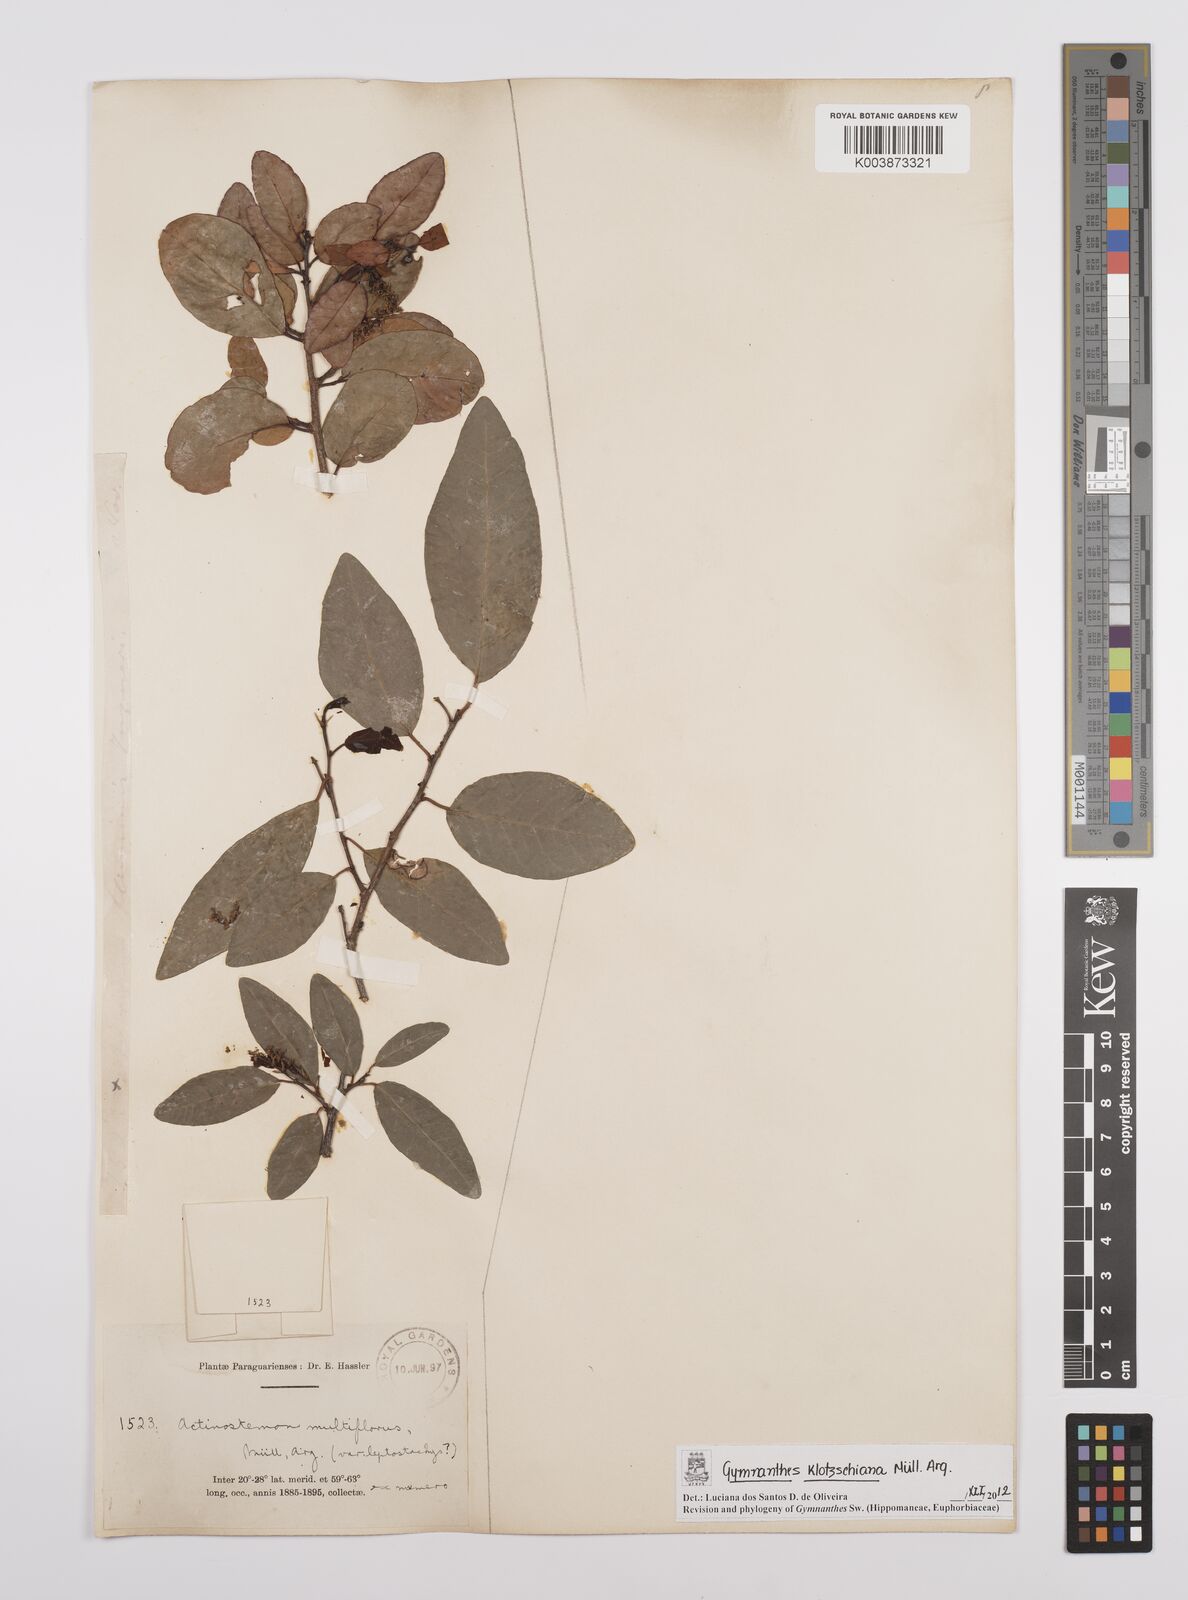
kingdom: Plantae
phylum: Tracheophyta
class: Magnoliopsida
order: Malpighiales
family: Euphorbiaceae
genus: Sebastiania
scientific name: Sebastiania klotzschiana
